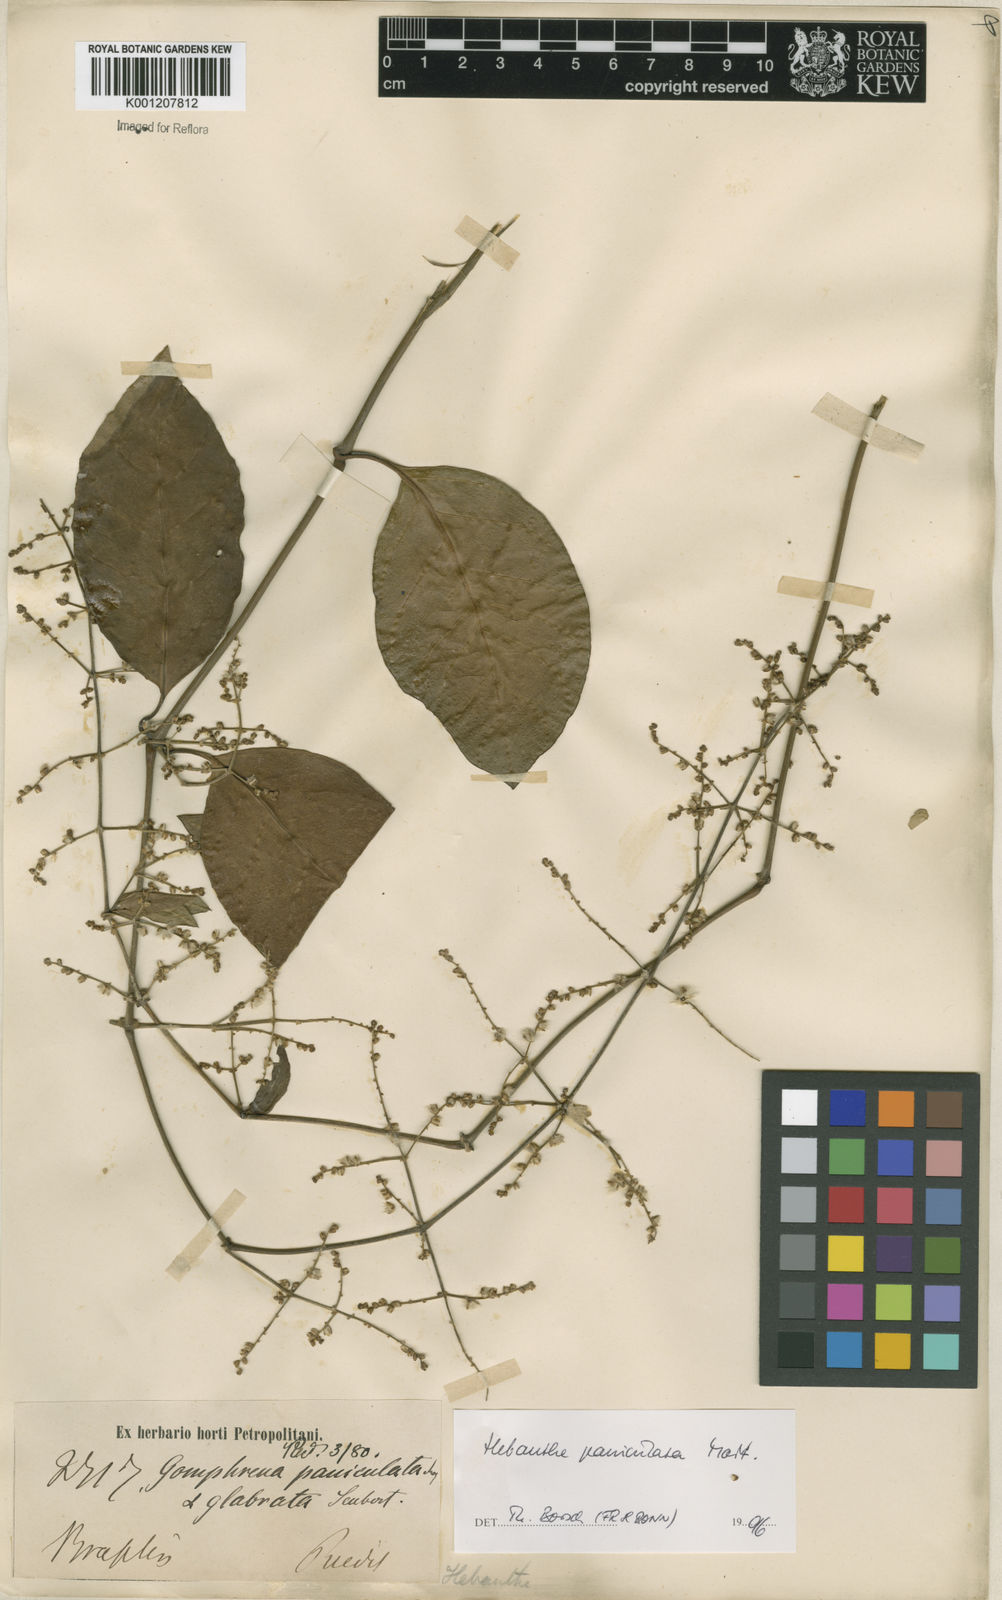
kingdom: Plantae
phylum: Tracheophyta
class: Magnoliopsida
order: Caryophyllales
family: Amaranthaceae
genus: Hebanthe
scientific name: Hebanthe erianthos
